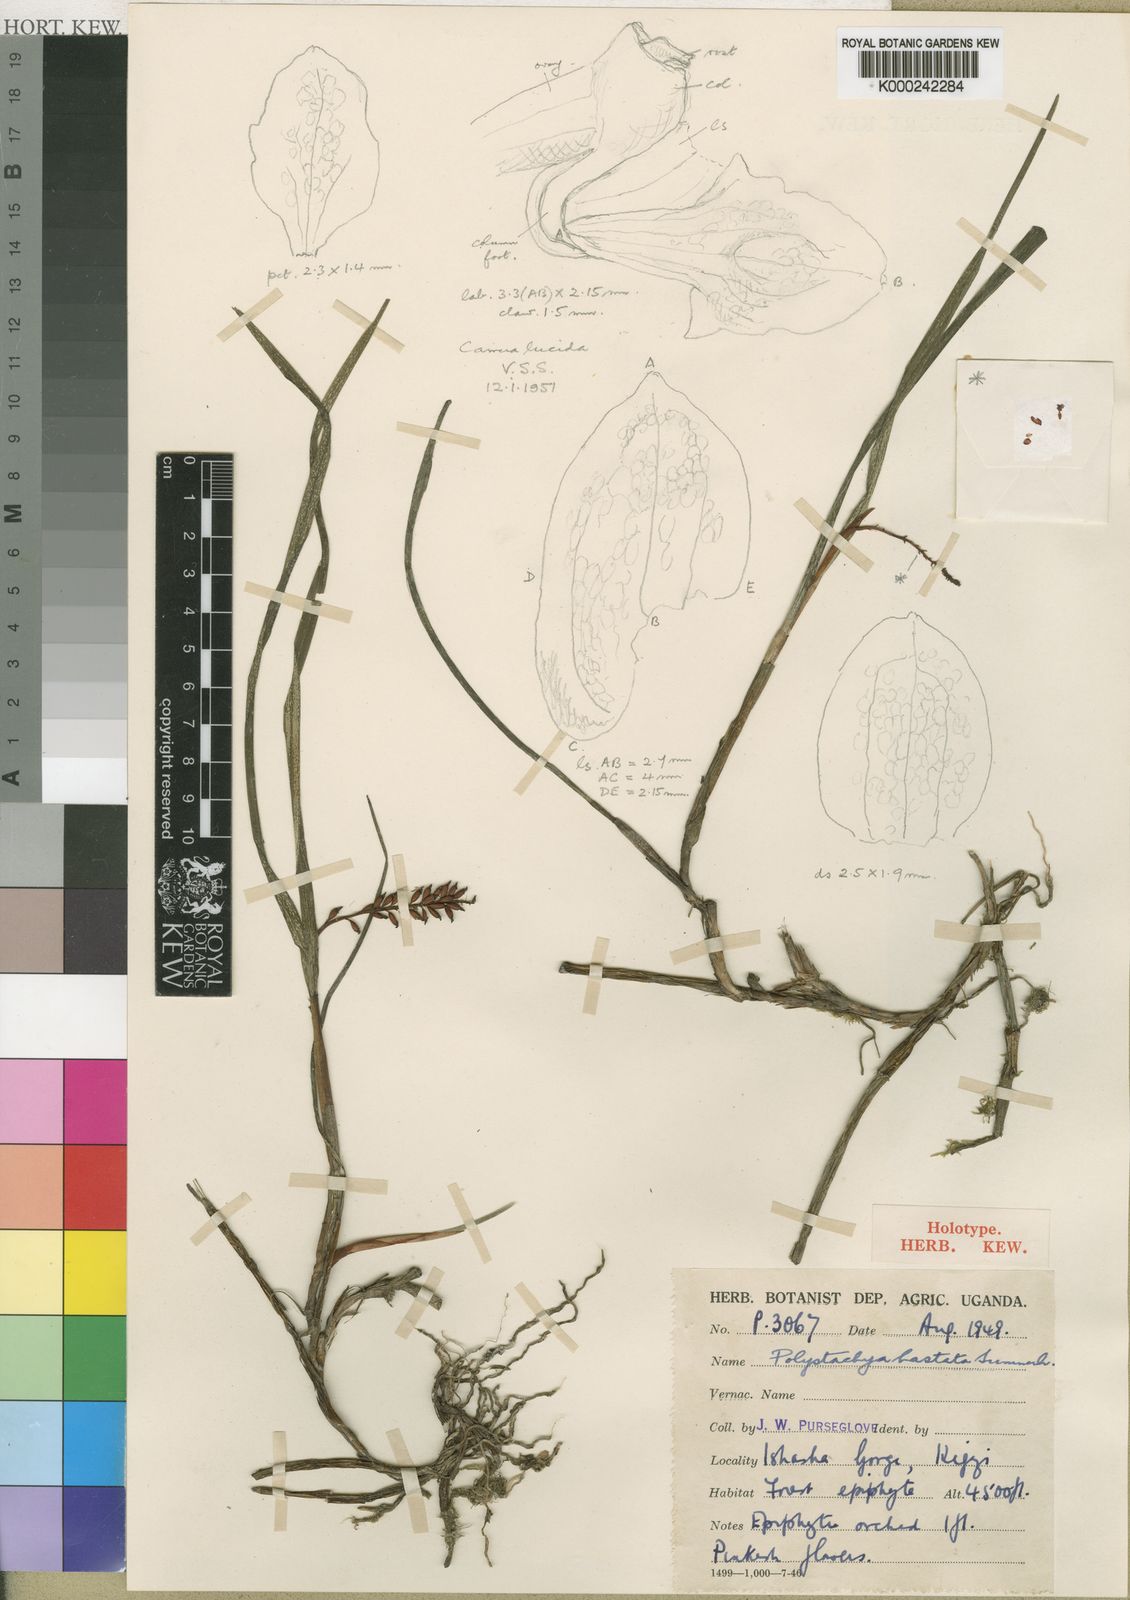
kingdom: Plantae
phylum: Tracheophyta
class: Liliopsida
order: Asparagales
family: Orchidaceae
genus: Polystachya
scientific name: Polystachya hastata
